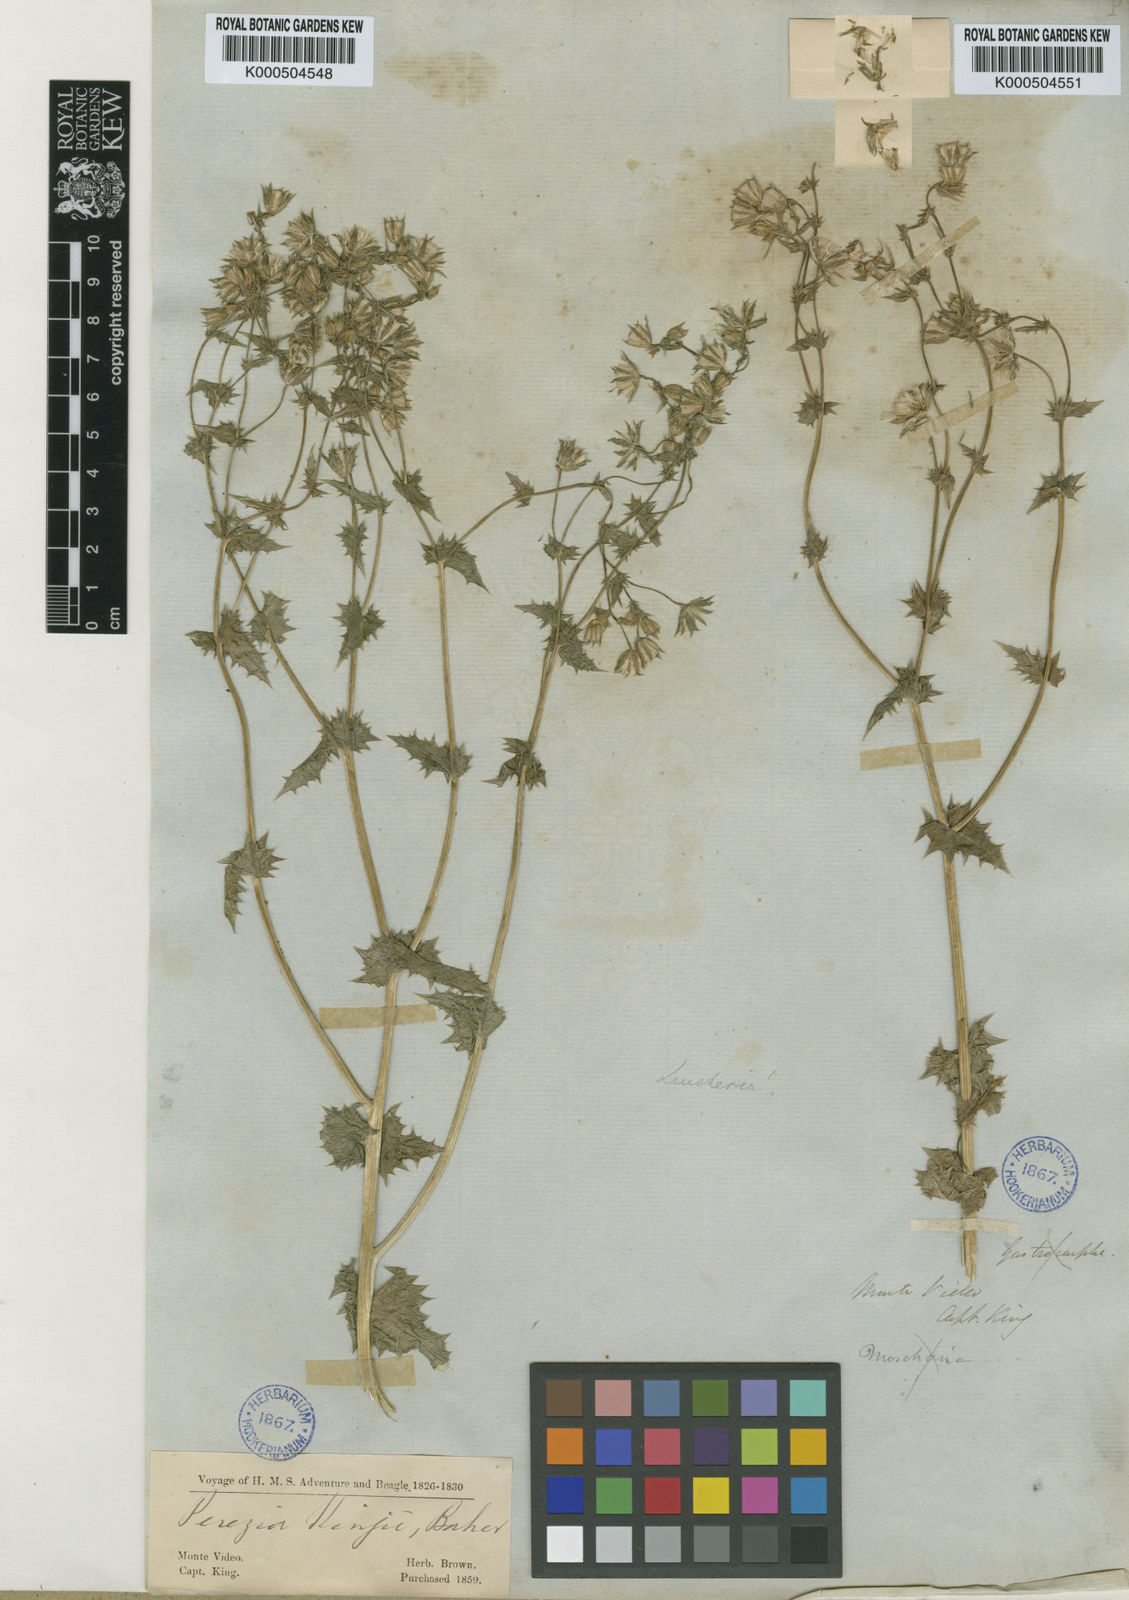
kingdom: Plantae
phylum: Tracheophyta
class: Magnoliopsida
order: Asterales
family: Asteraceae
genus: Perezia
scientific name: Perezia kingii
